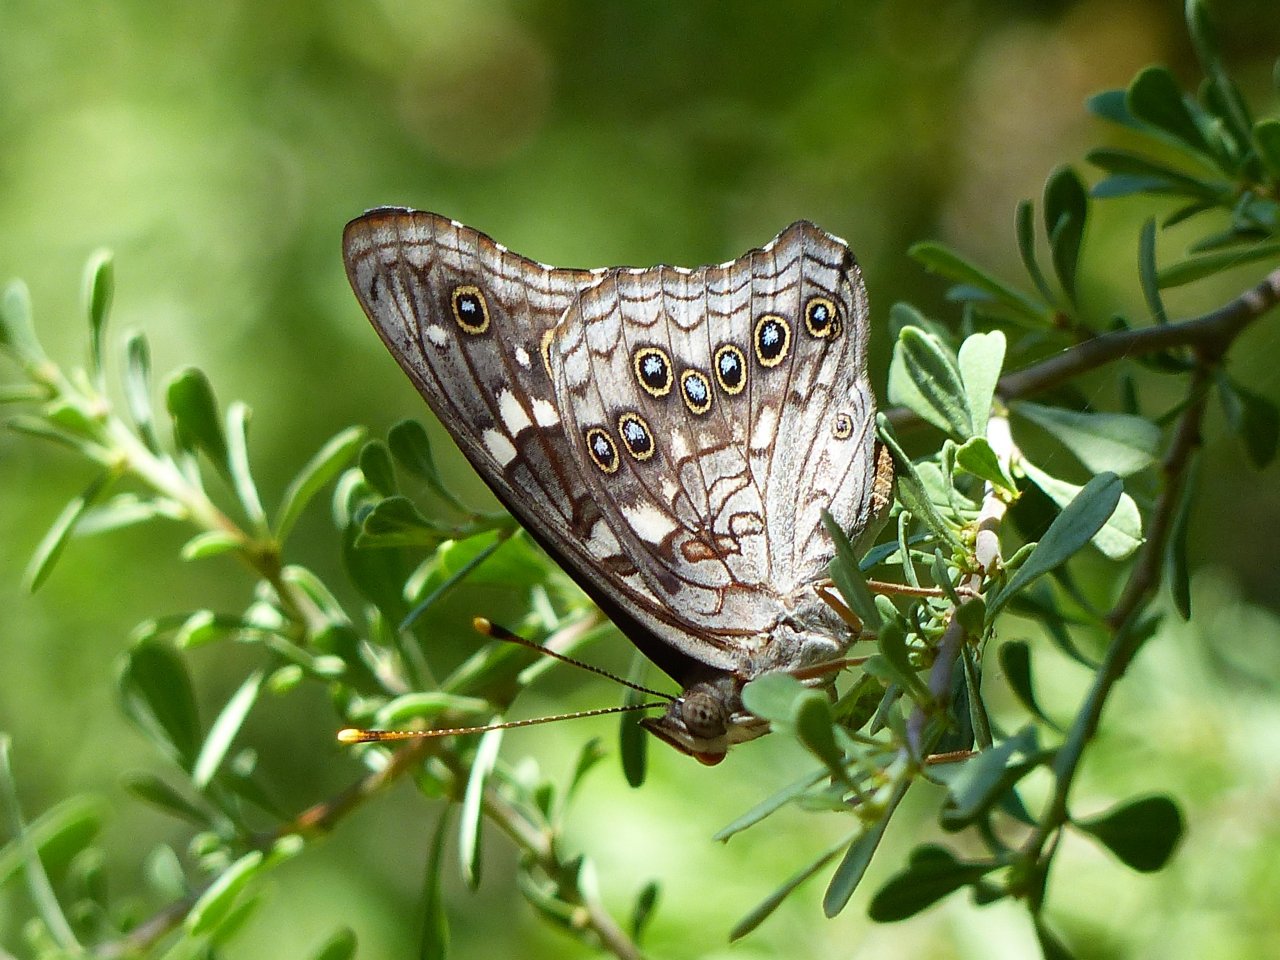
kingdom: Animalia
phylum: Arthropoda
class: Insecta
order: Lepidoptera
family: Nymphalidae
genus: Asterocampa
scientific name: Asterocampa leilia
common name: Empress Leilia
